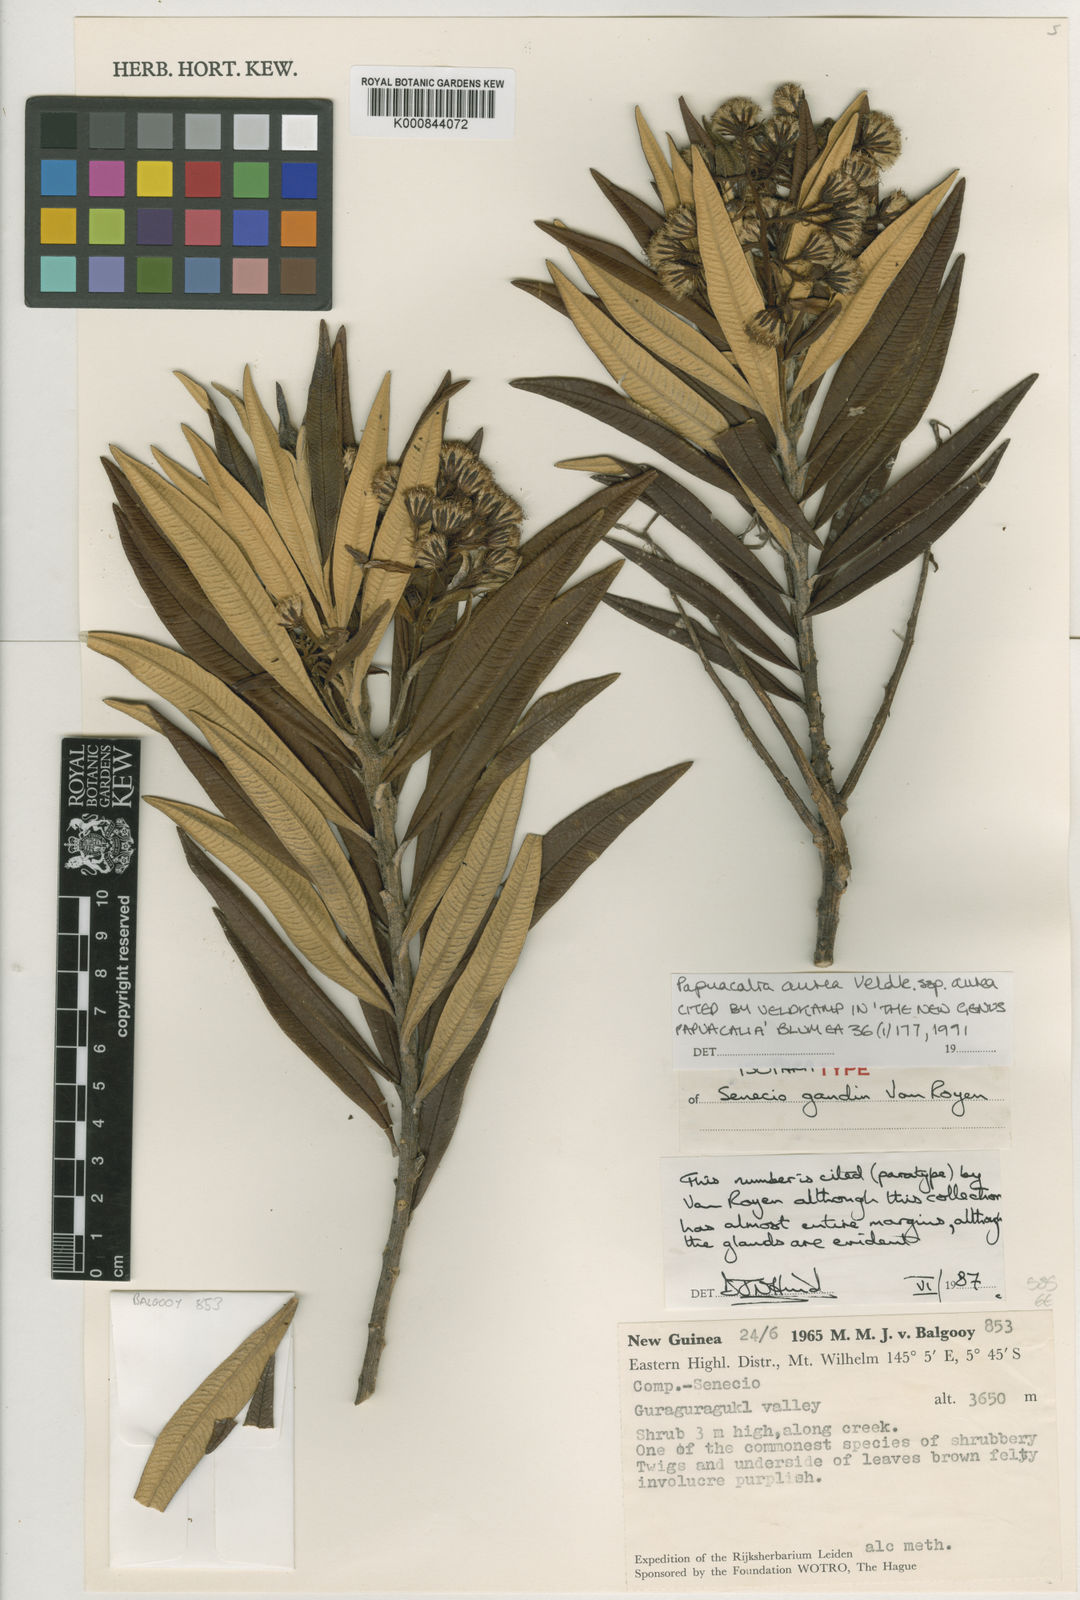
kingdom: Plantae
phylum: Tracheophyta
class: Magnoliopsida
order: Asterales
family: Asteraceae
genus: Papuacalia
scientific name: Papuacalia aurea
